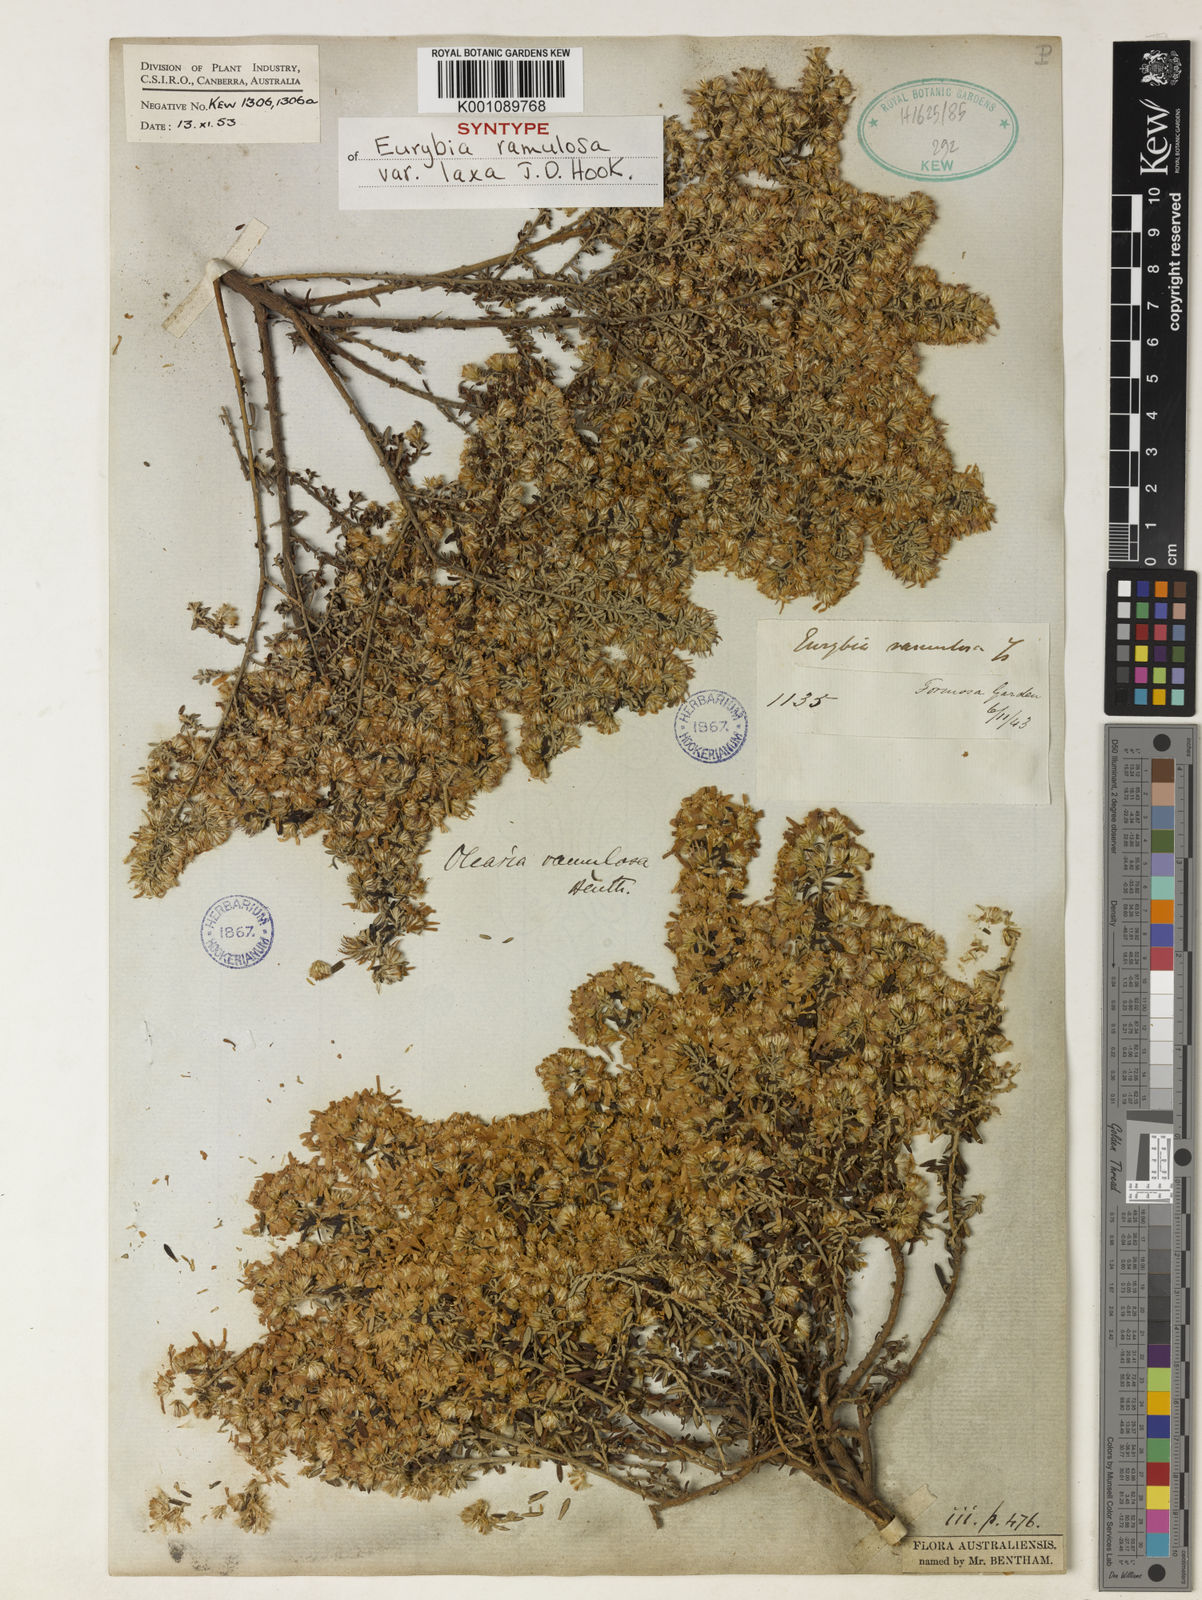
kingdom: Plantae
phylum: Tracheophyta
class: Magnoliopsida
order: Asterales
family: Asteraceae
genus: Olearia
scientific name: Olearia ramulosa
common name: Twiggy daisybush
